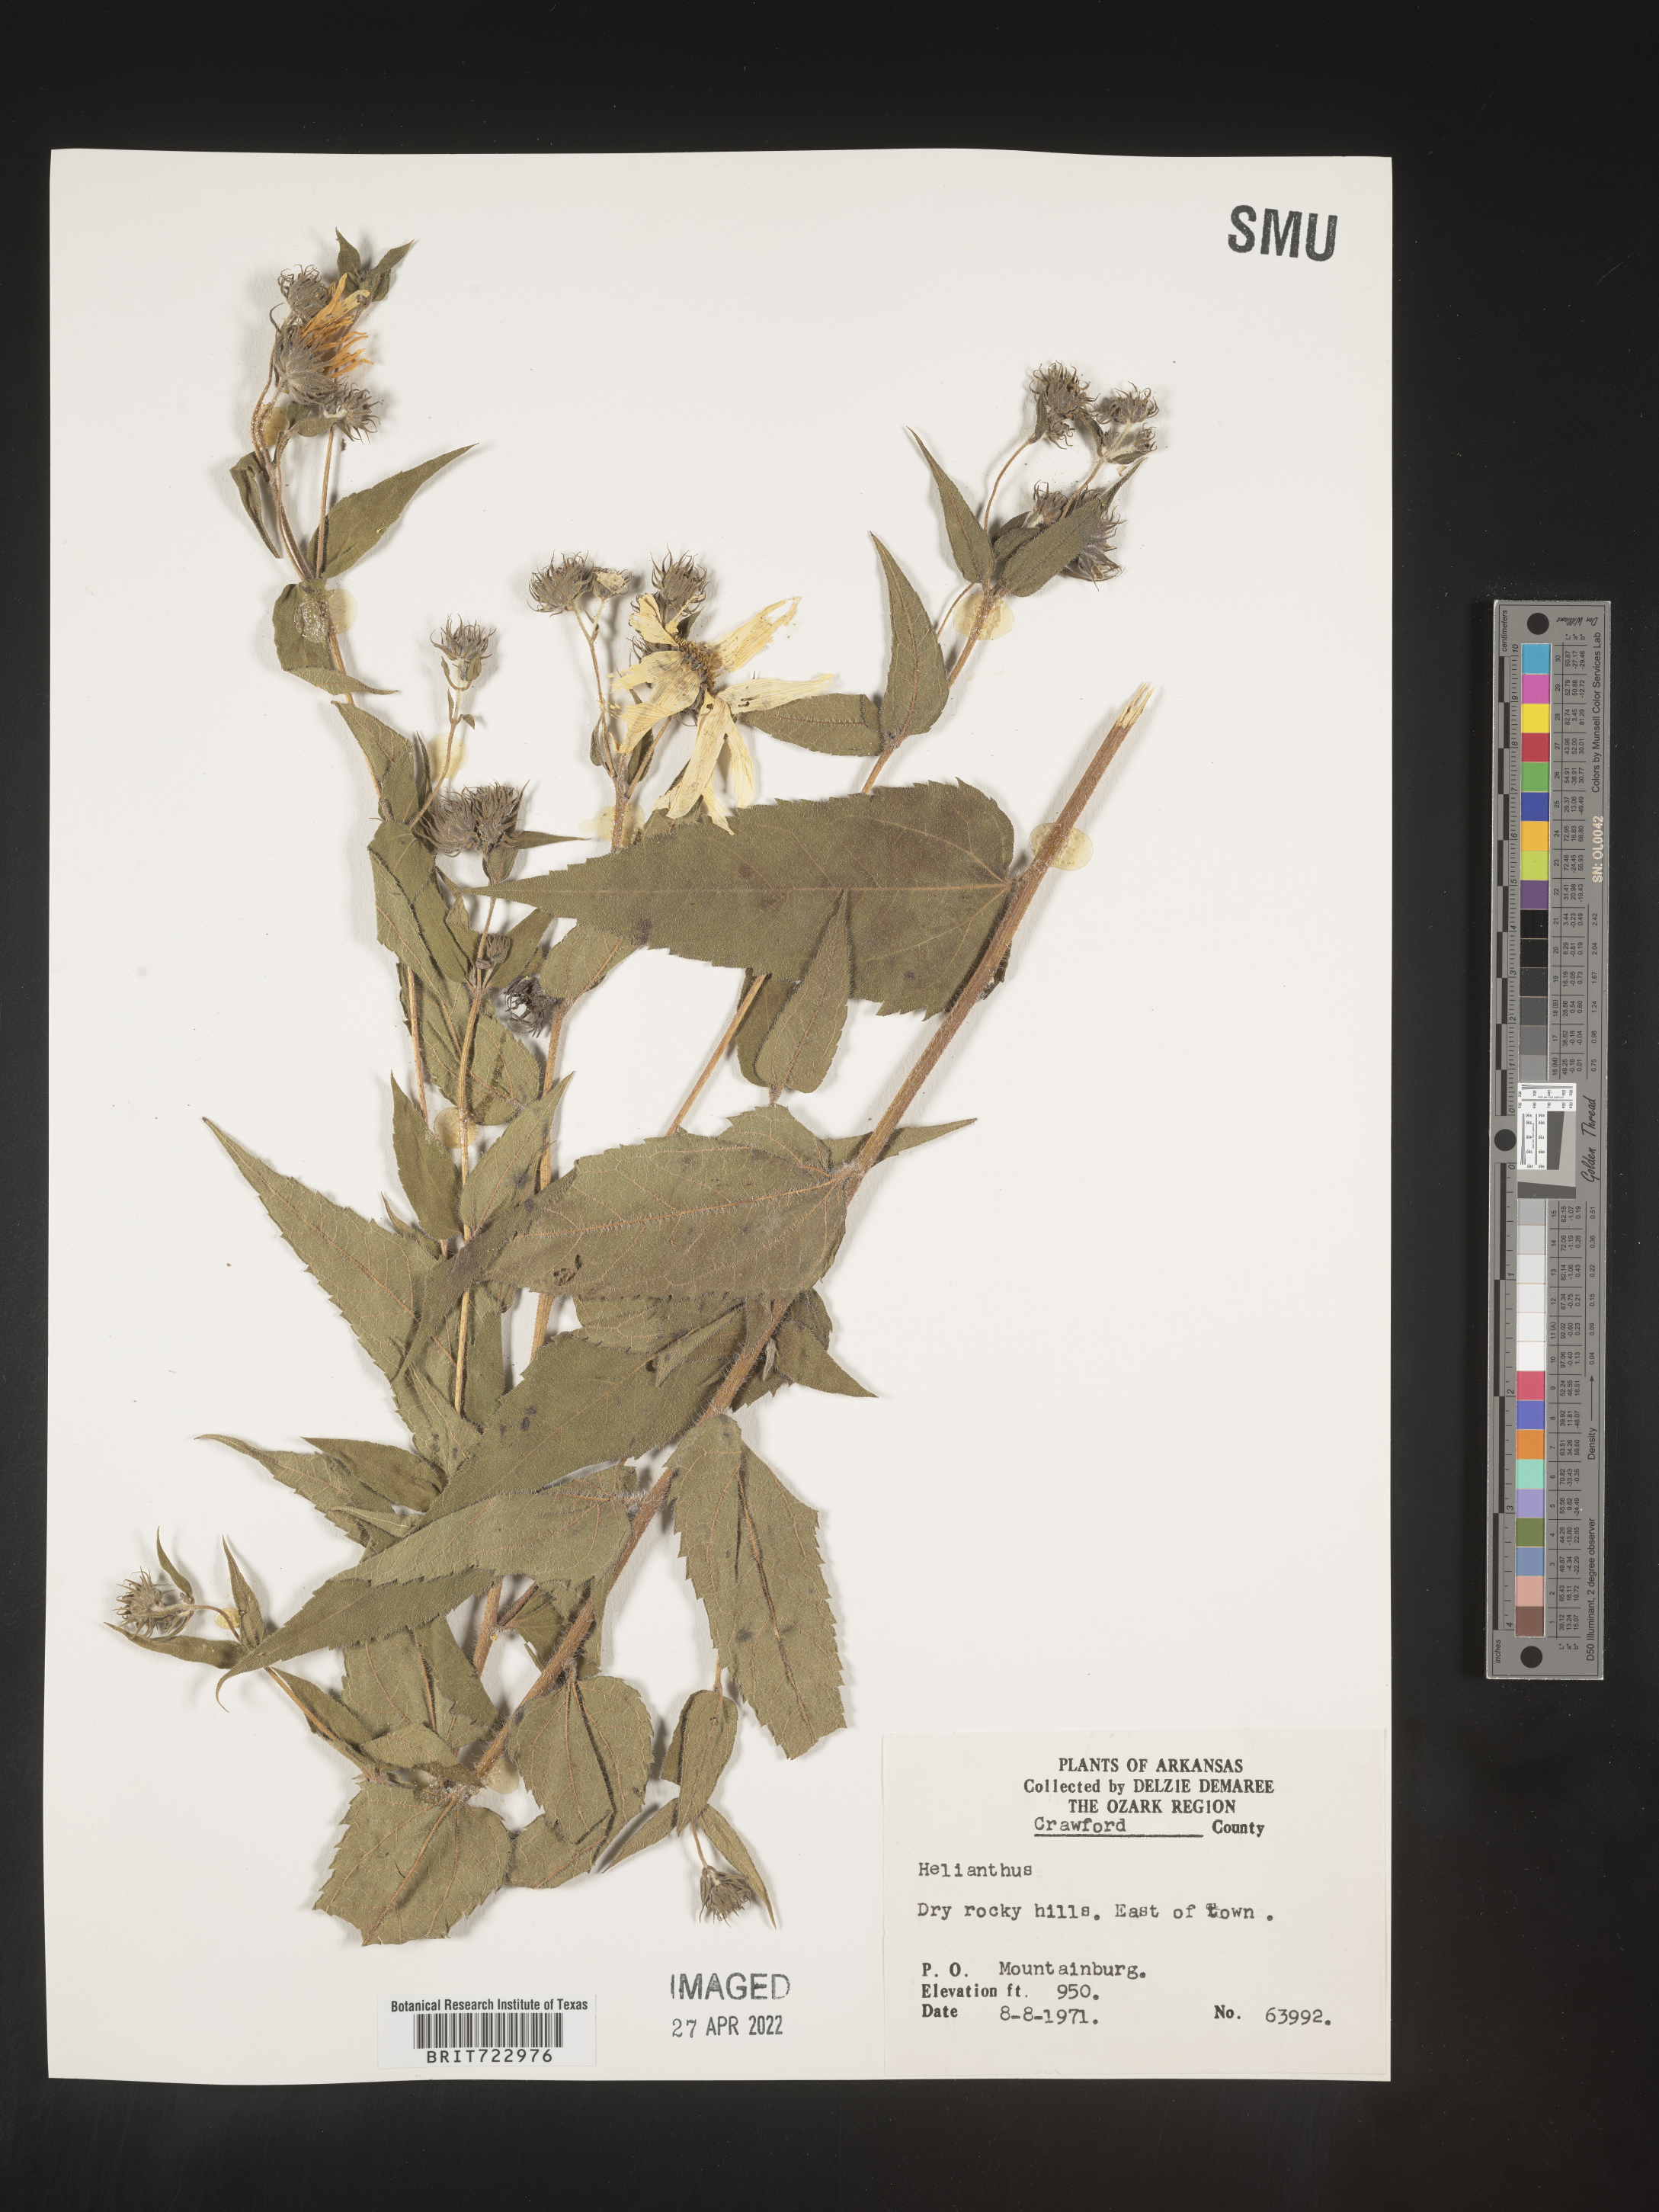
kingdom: Plantae
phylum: Tracheophyta
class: Magnoliopsida
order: Asterales
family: Asteraceae
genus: Helianthus
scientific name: Helianthus
